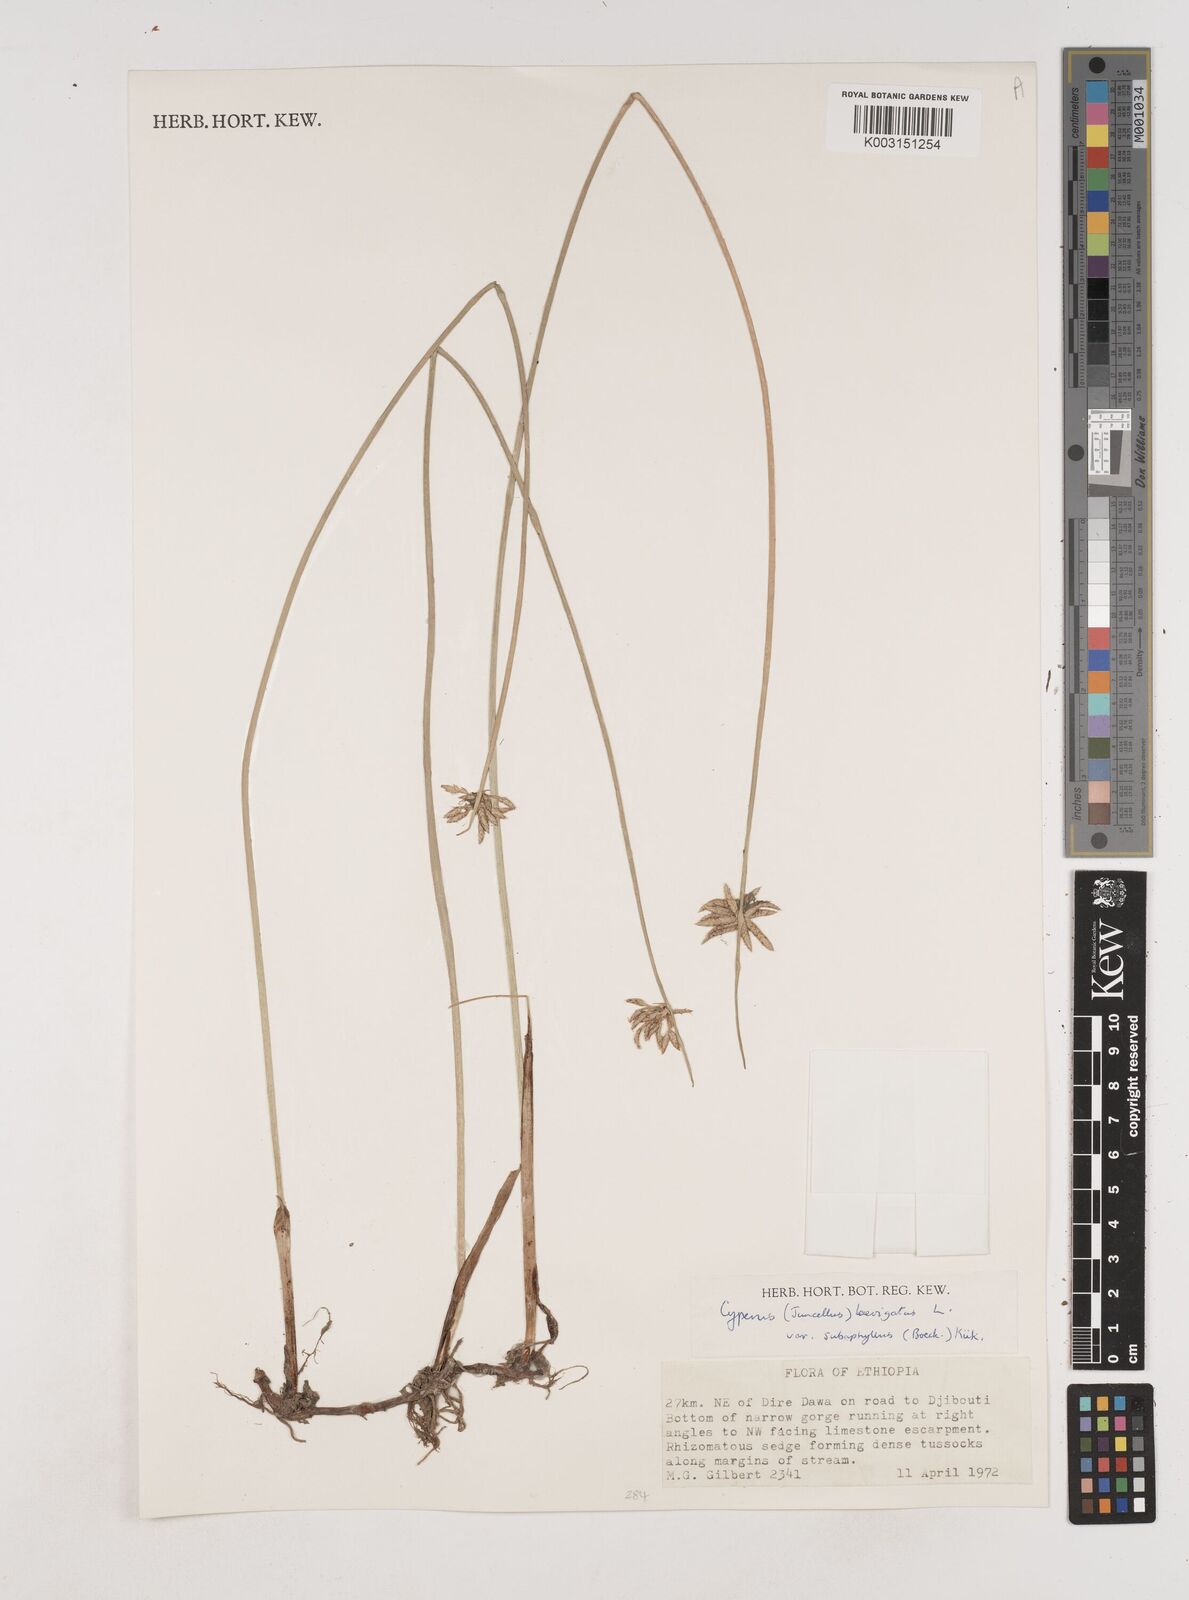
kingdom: Plantae
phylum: Tracheophyta
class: Liliopsida
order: Poales
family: Cyperaceae
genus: Cyperus
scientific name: Cyperus laevigatus
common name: Smooth flat sedge
